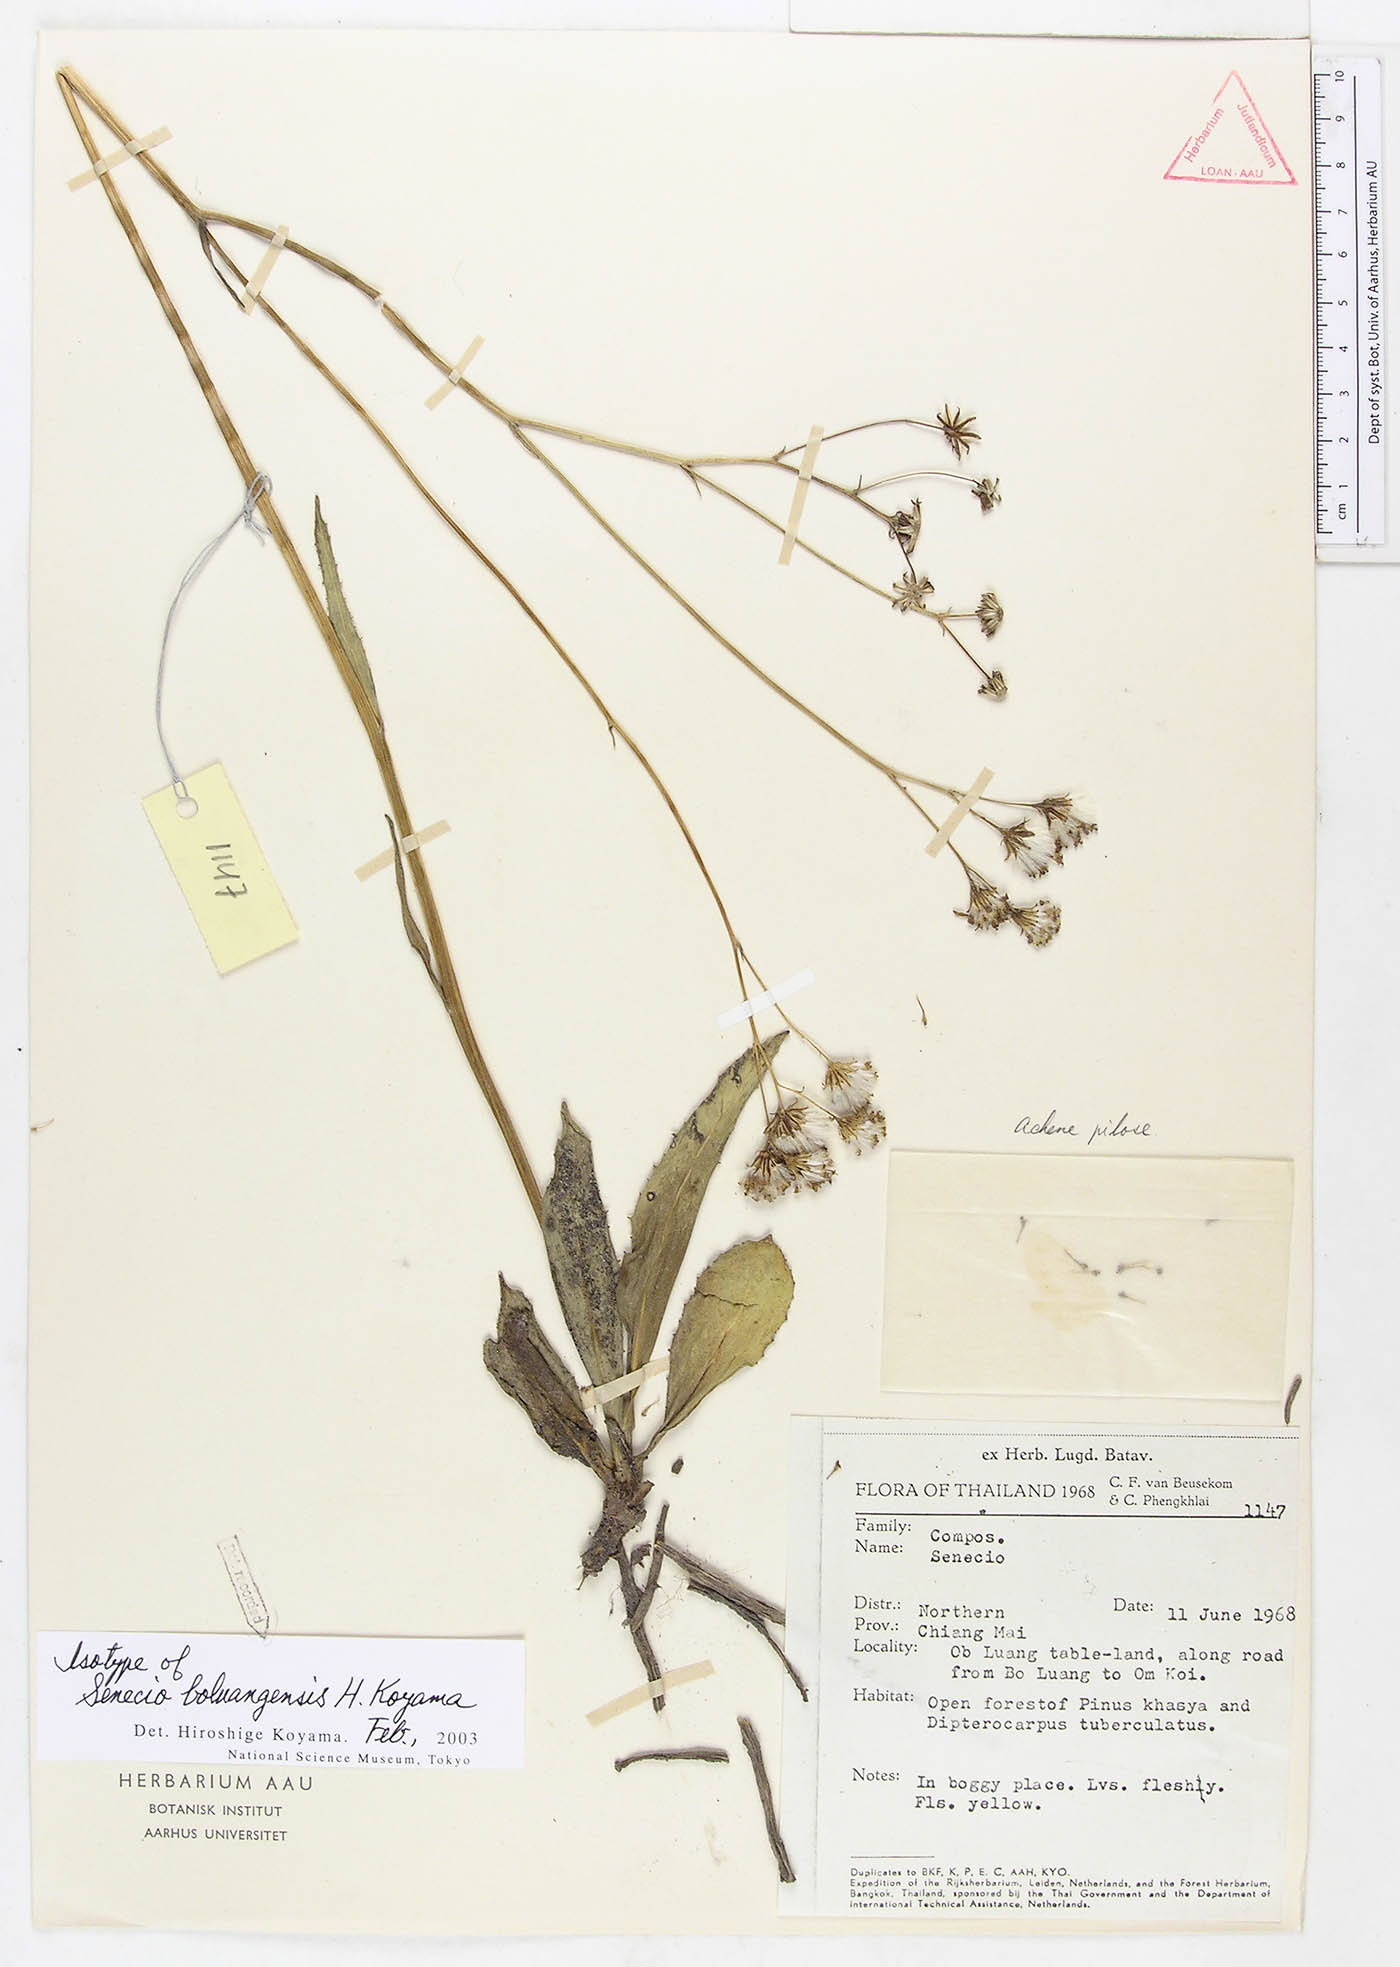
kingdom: Plantae
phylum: Tracheophyta
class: Magnoliopsida
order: Asterales
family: Asteraceae
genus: Senecio
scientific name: Senecio boluangensis
